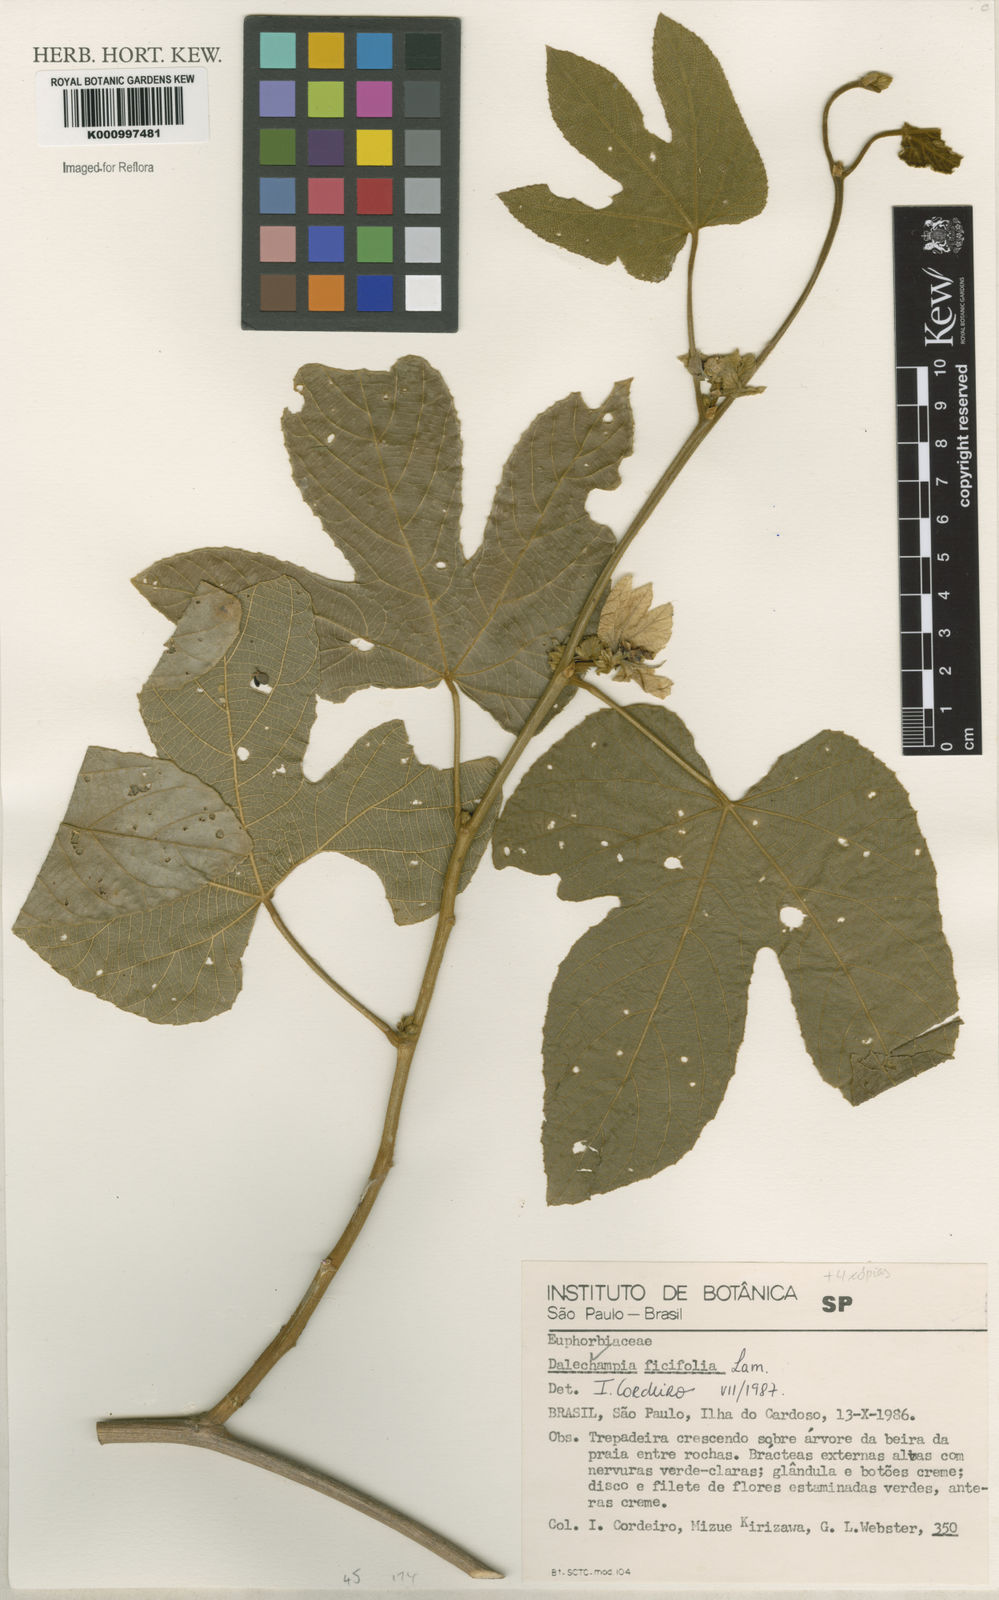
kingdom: Plantae
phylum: Tracheophyta
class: Magnoliopsida
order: Malpighiales
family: Euphorbiaceae
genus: Dalechampia
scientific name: Dalechampia ficifolia
